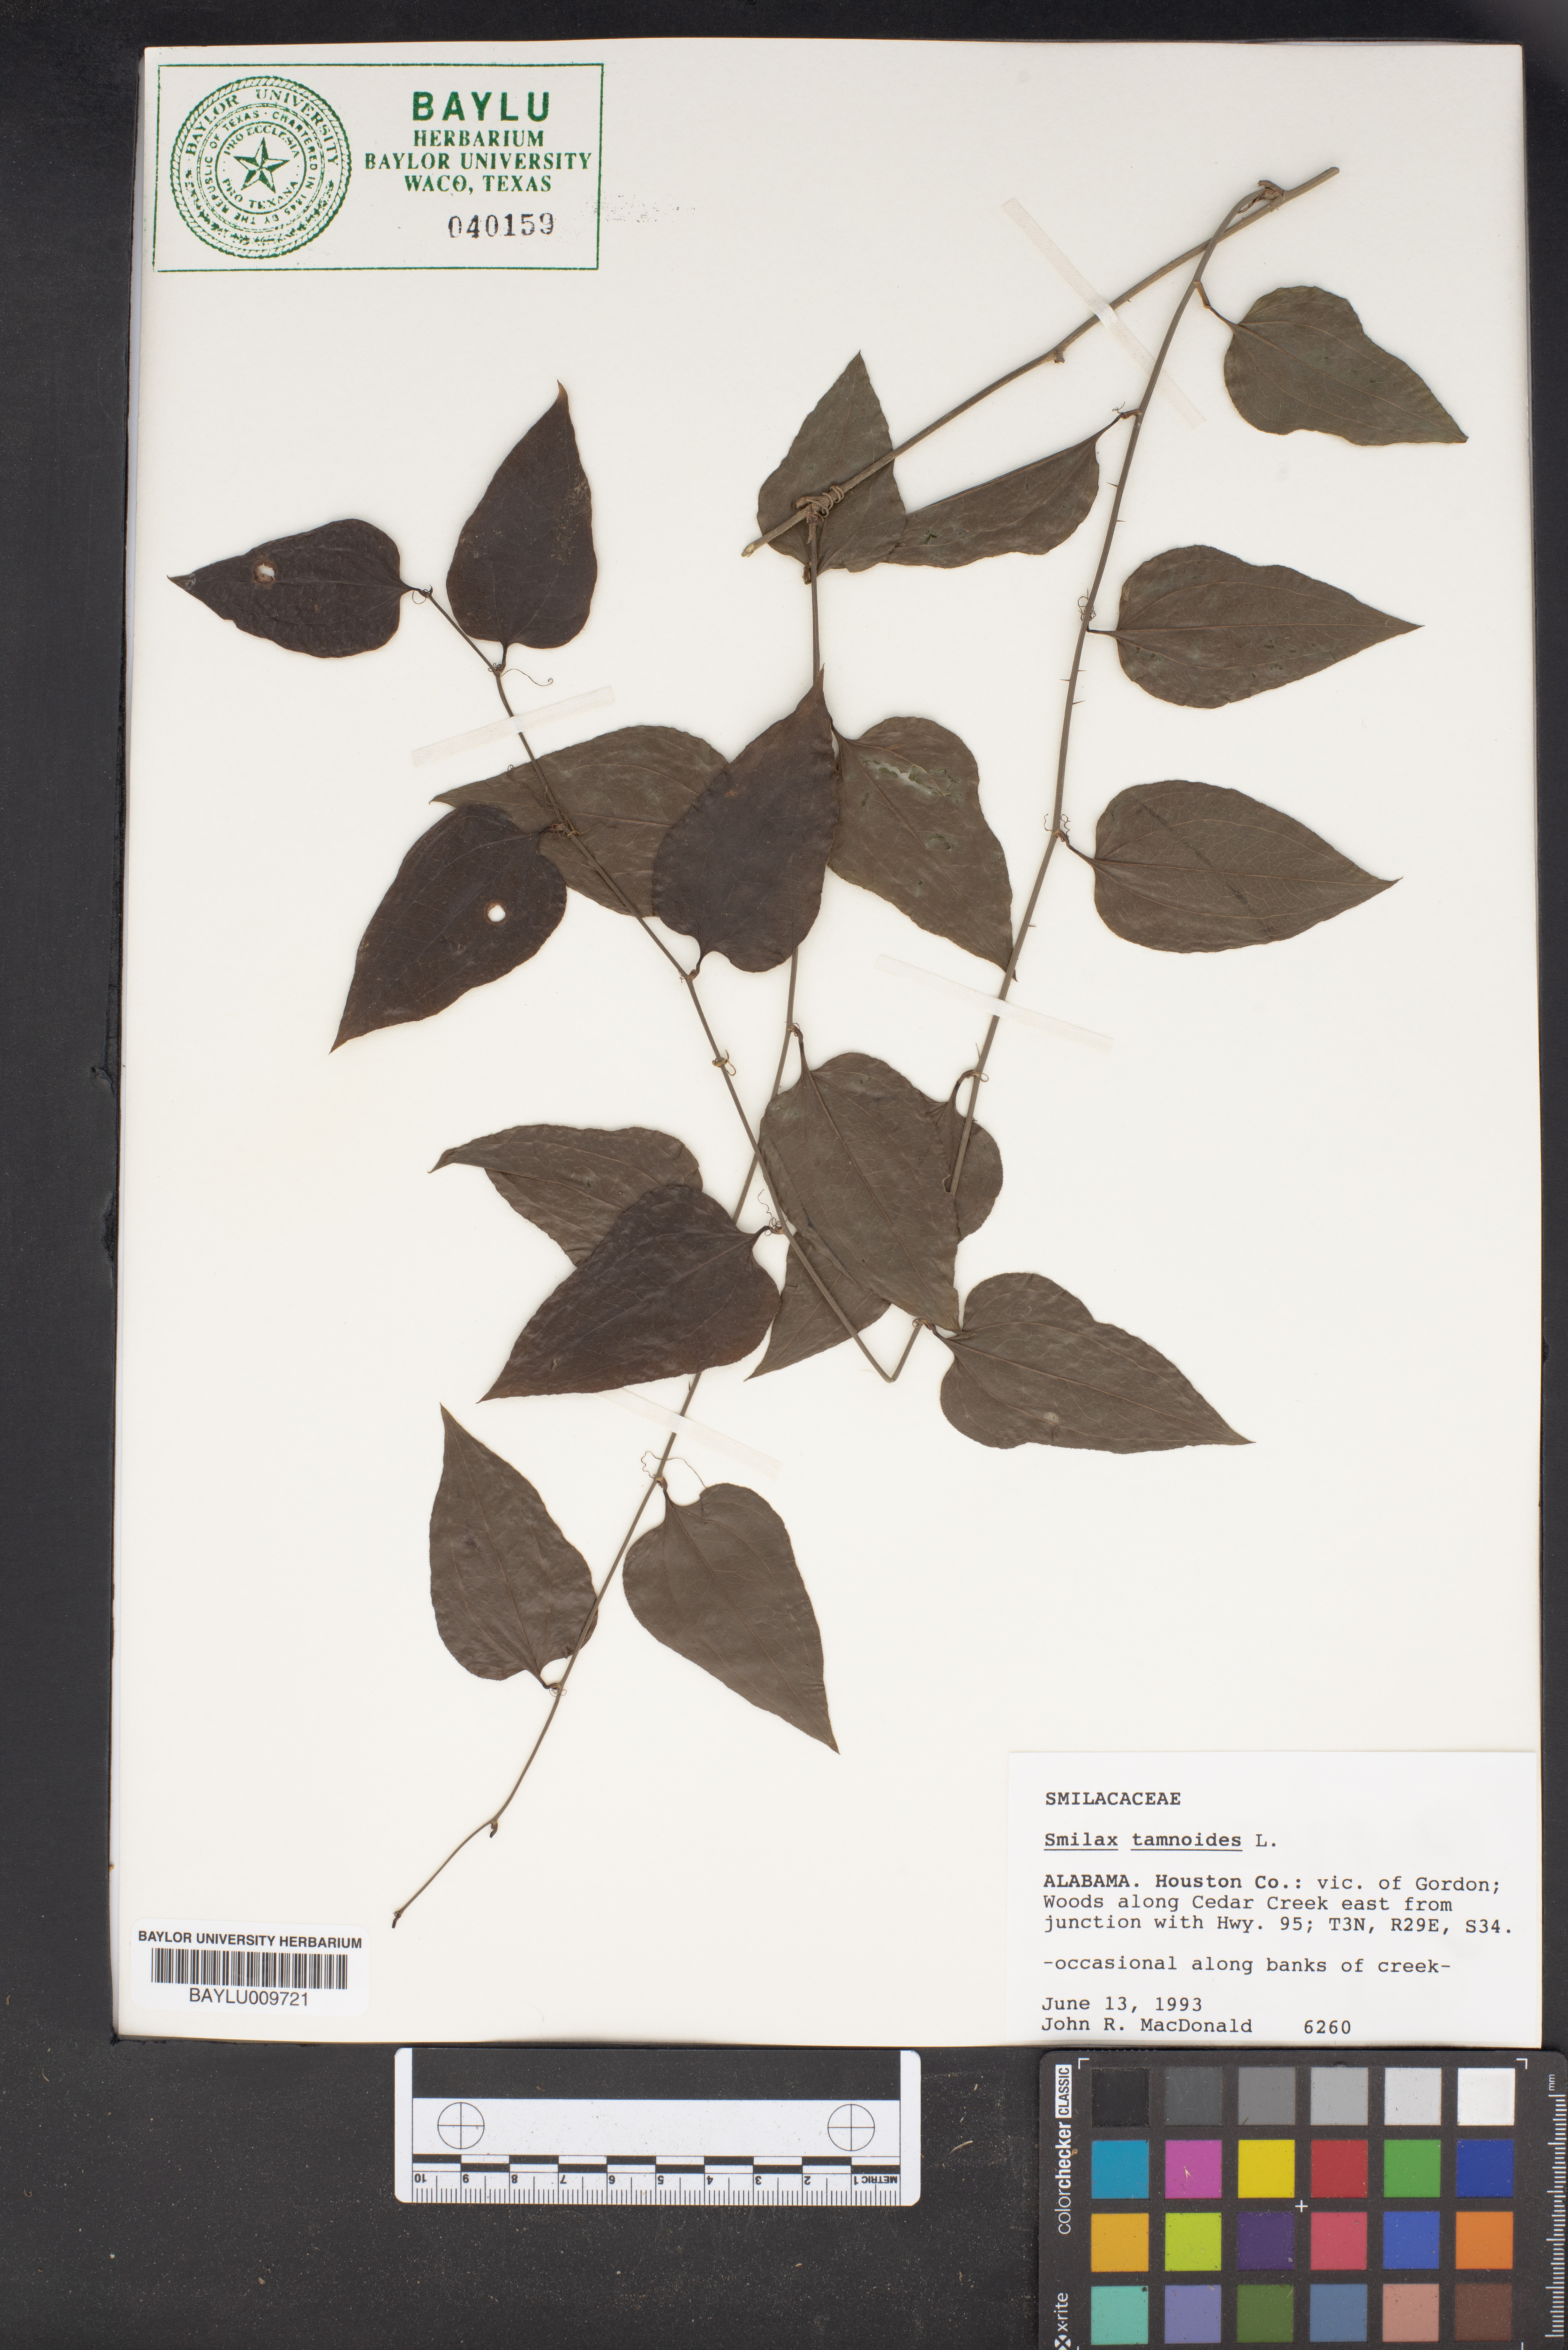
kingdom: Plantae
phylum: Tracheophyta
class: Liliopsida
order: Liliales
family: Smilacaceae
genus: Smilax
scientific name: Smilax tamnoides
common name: Hellfetter
